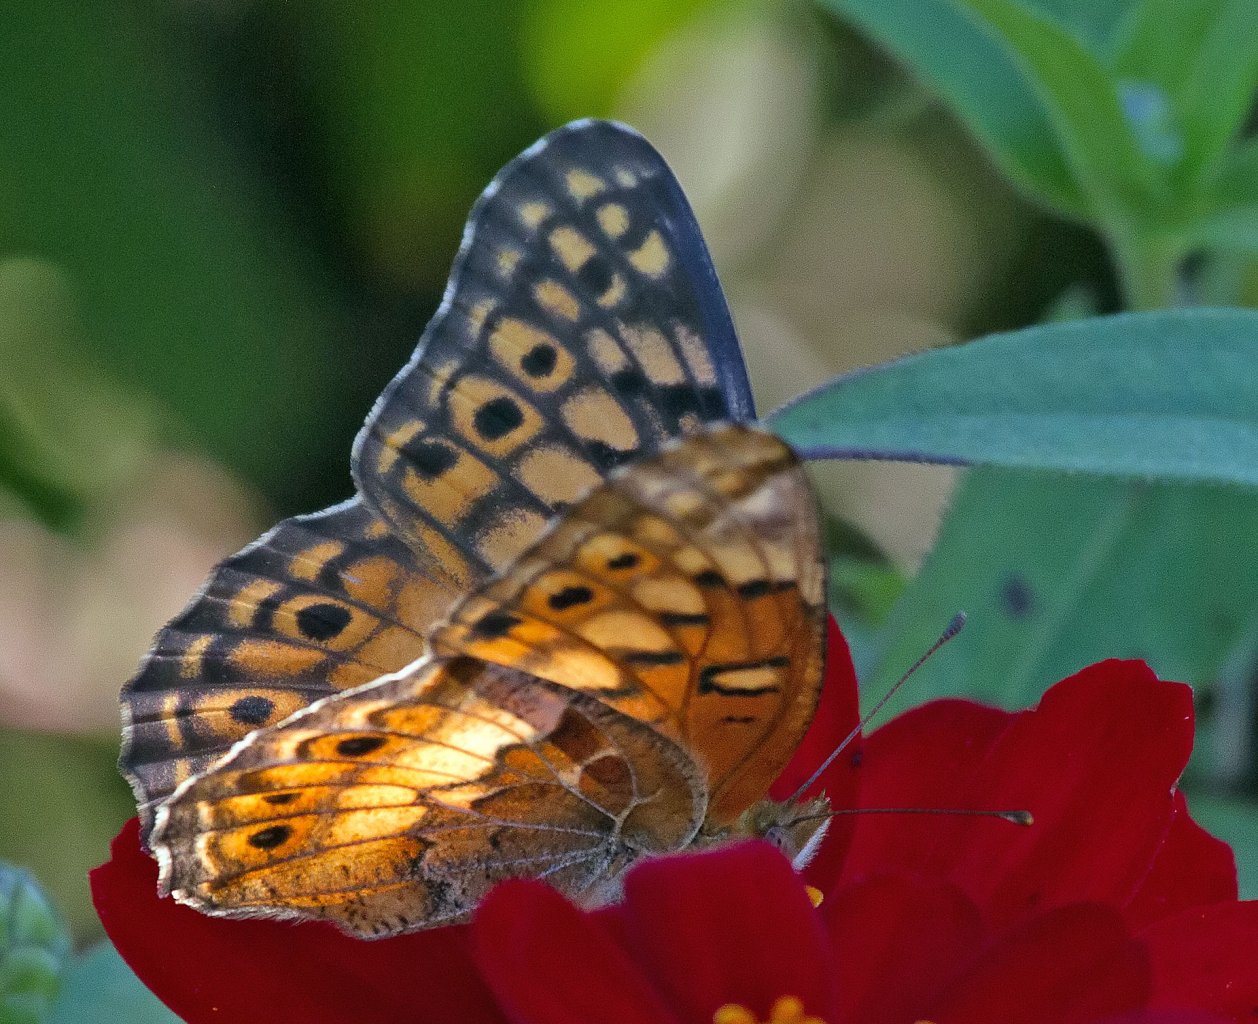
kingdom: Animalia
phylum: Arthropoda
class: Insecta
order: Lepidoptera
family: Nymphalidae
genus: Euptoieta
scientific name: Euptoieta claudia
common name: Variegated Fritillary
